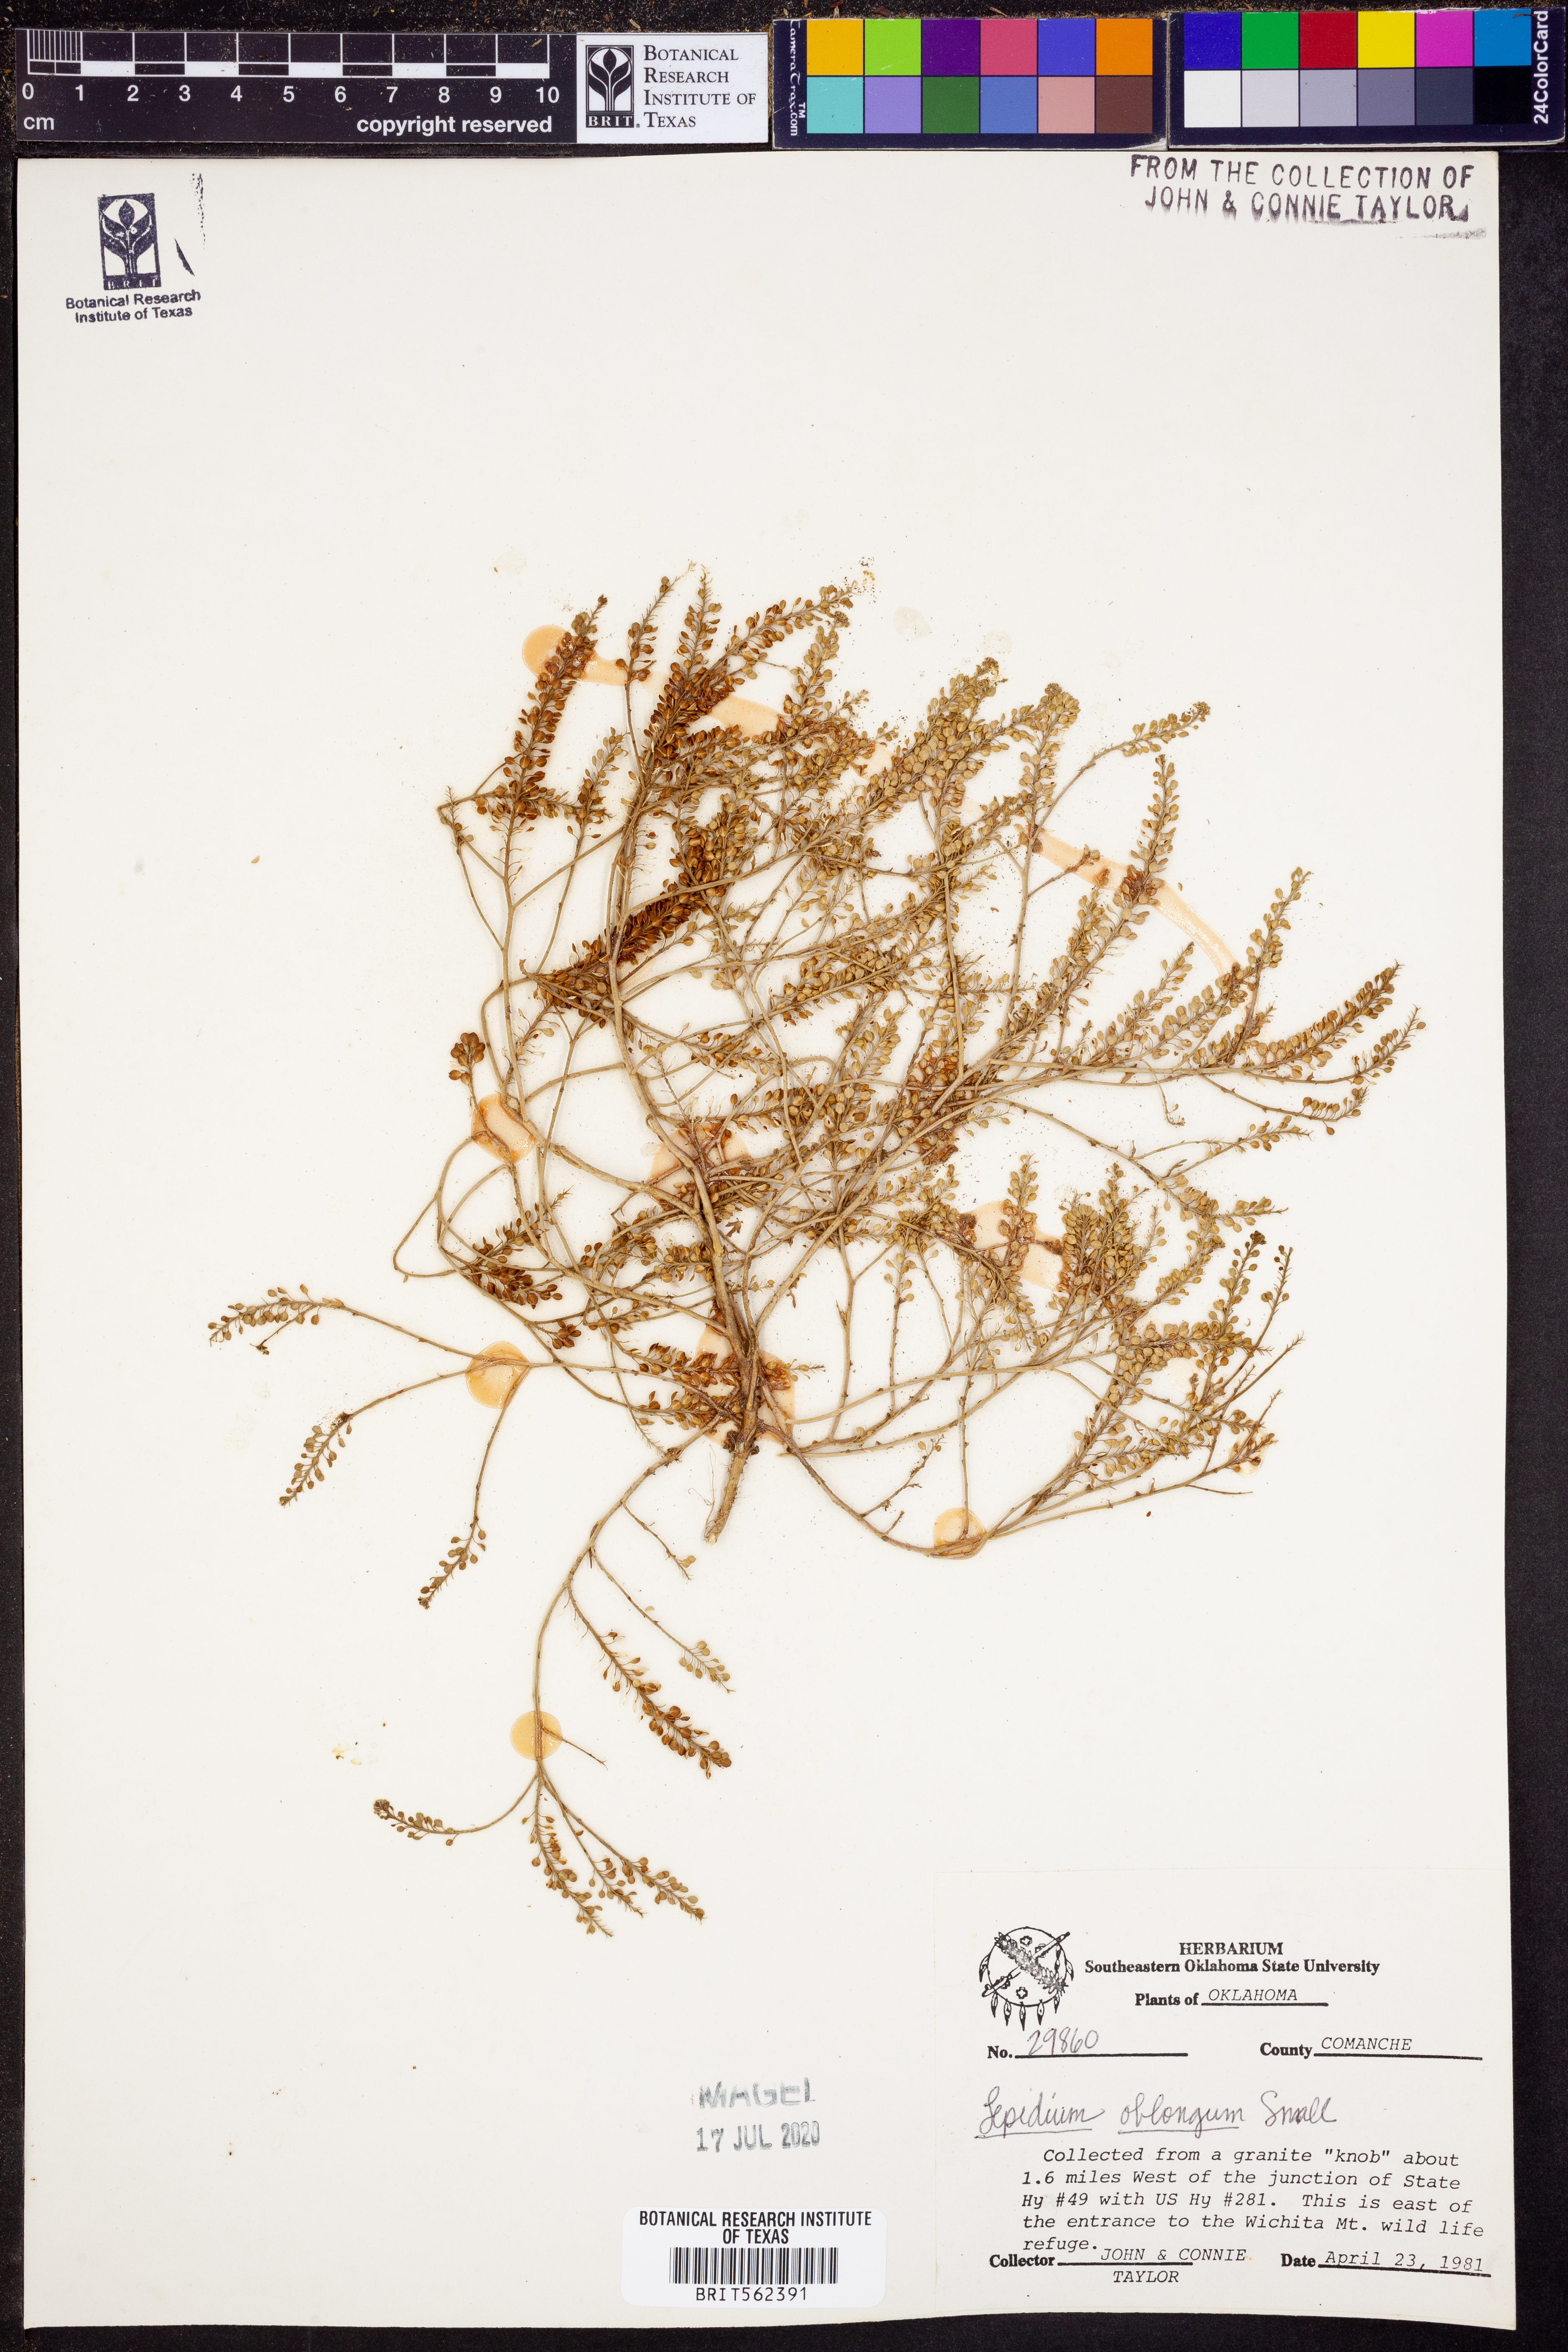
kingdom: Plantae
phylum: Tracheophyta
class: Magnoliopsida
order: Brassicales
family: Brassicaceae
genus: Lepidium
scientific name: Lepidium oblongum
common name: Veiny pepperweed
